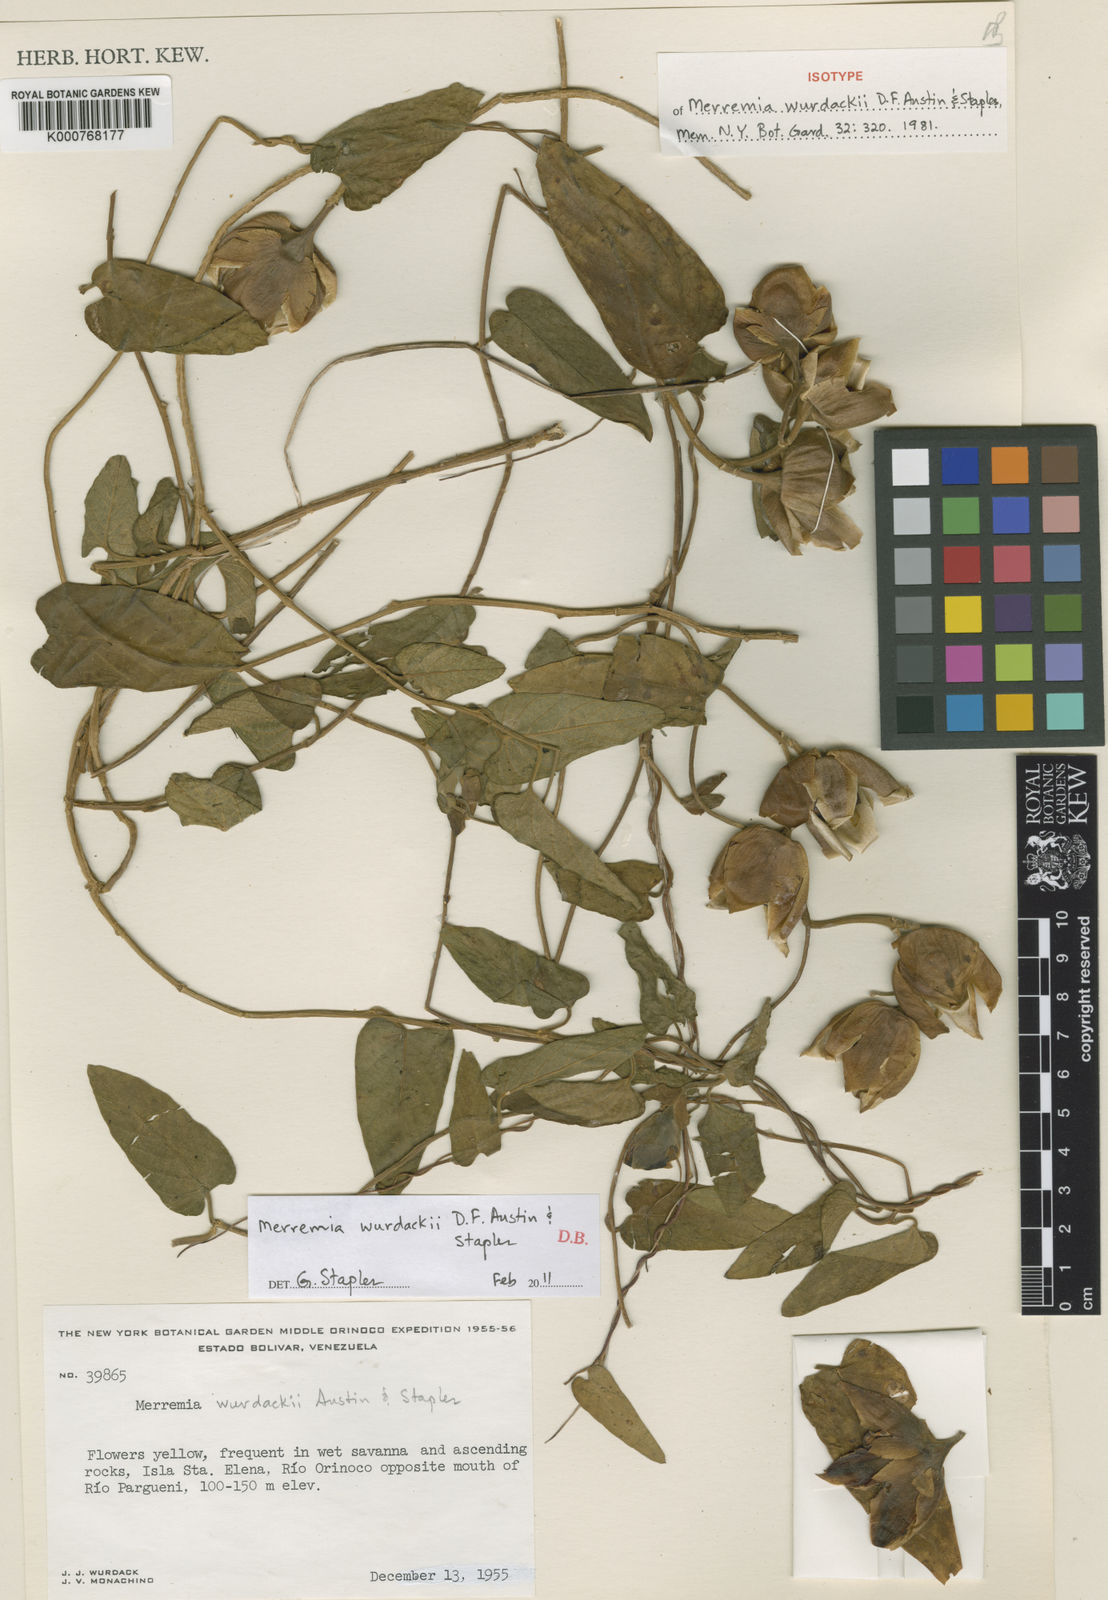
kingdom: Plantae
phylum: Tracheophyta
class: Magnoliopsida
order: Solanales
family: Convolvulaceae
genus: Distimake
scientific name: Distimake wurdackii
